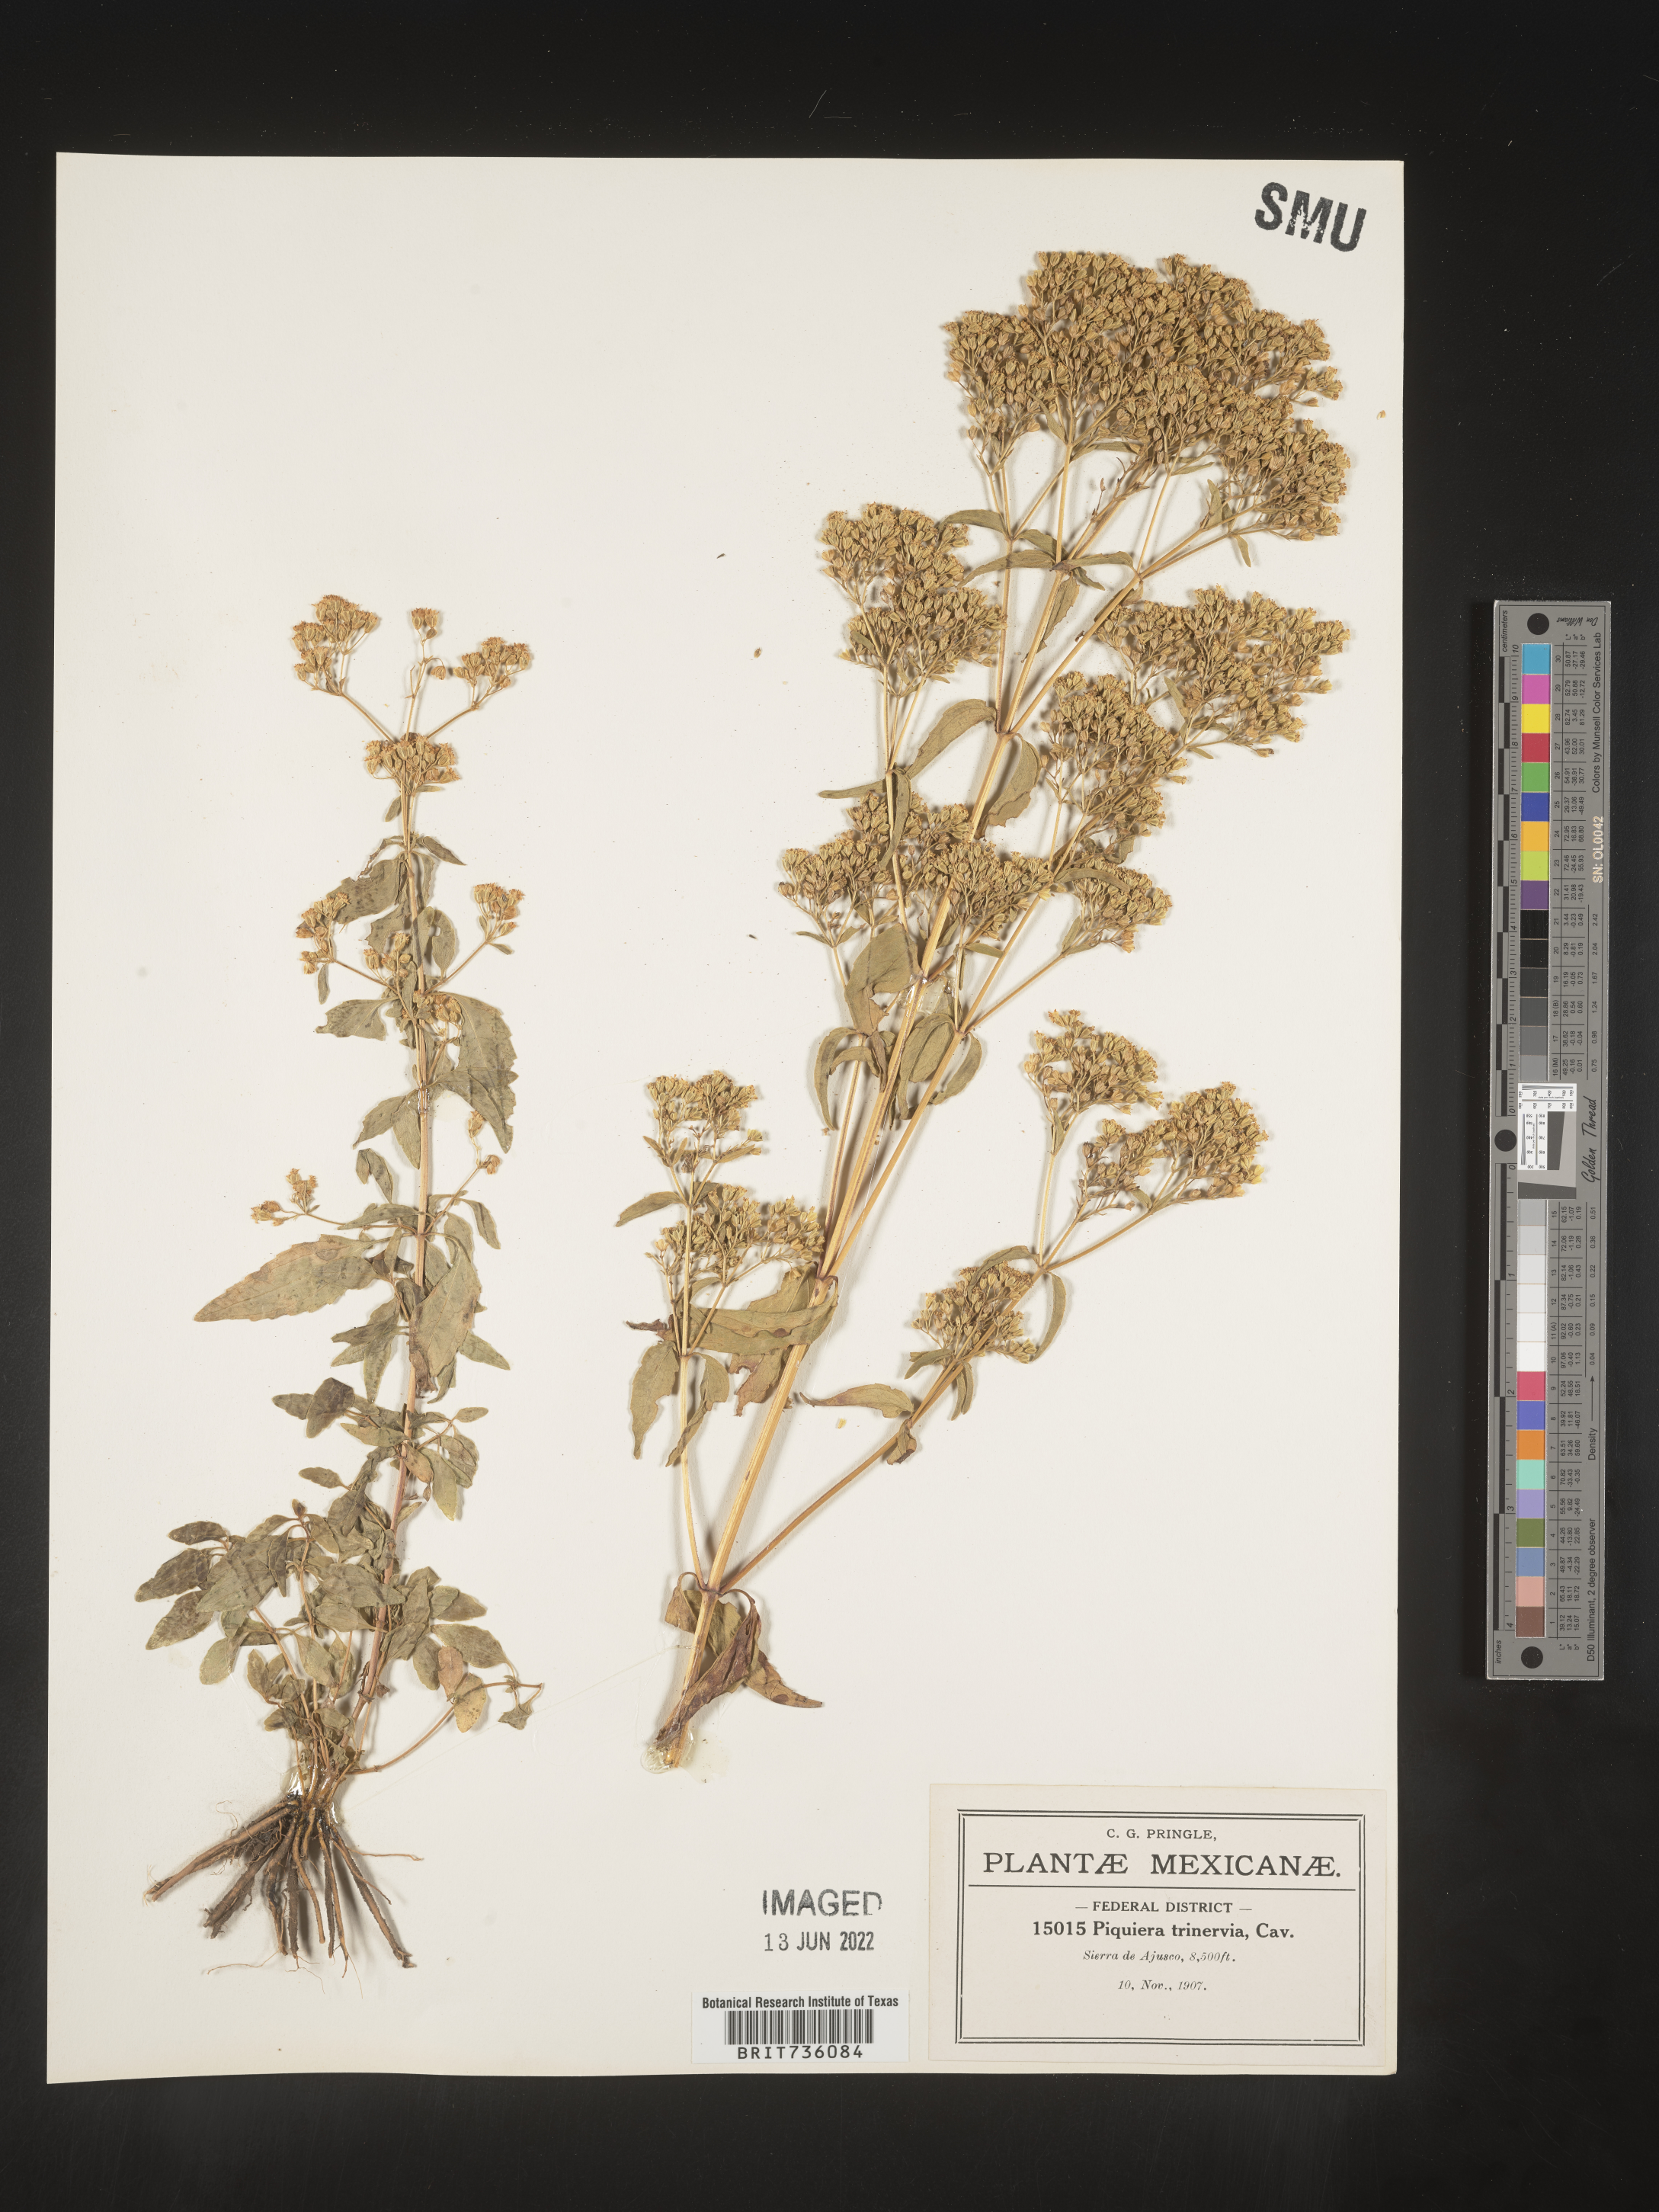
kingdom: Plantae
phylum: Tracheophyta
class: Magnoliopsida
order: Asterales
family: Asteraceae
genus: Piqueria
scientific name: Piqueria
